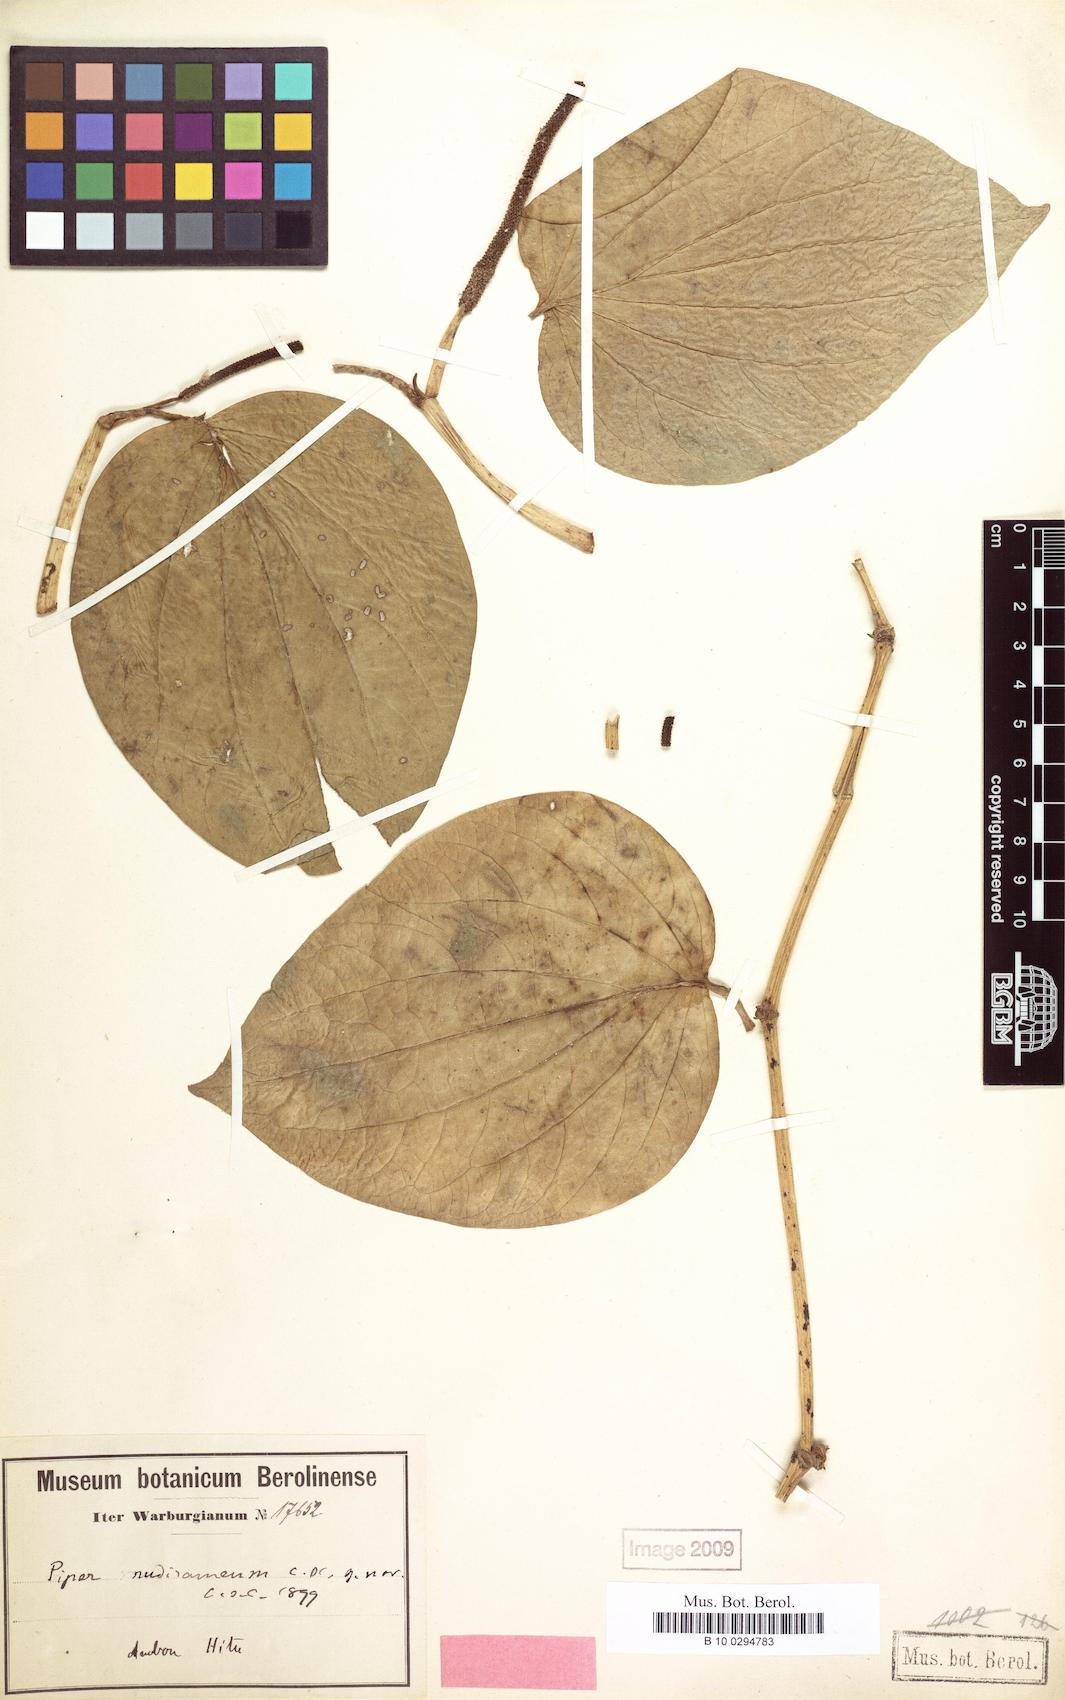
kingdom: Plantae
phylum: Tracheophyta
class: Magnoliopsida
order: Piperales
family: Piperaceae
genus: Piper
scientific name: Piper nudiramum
